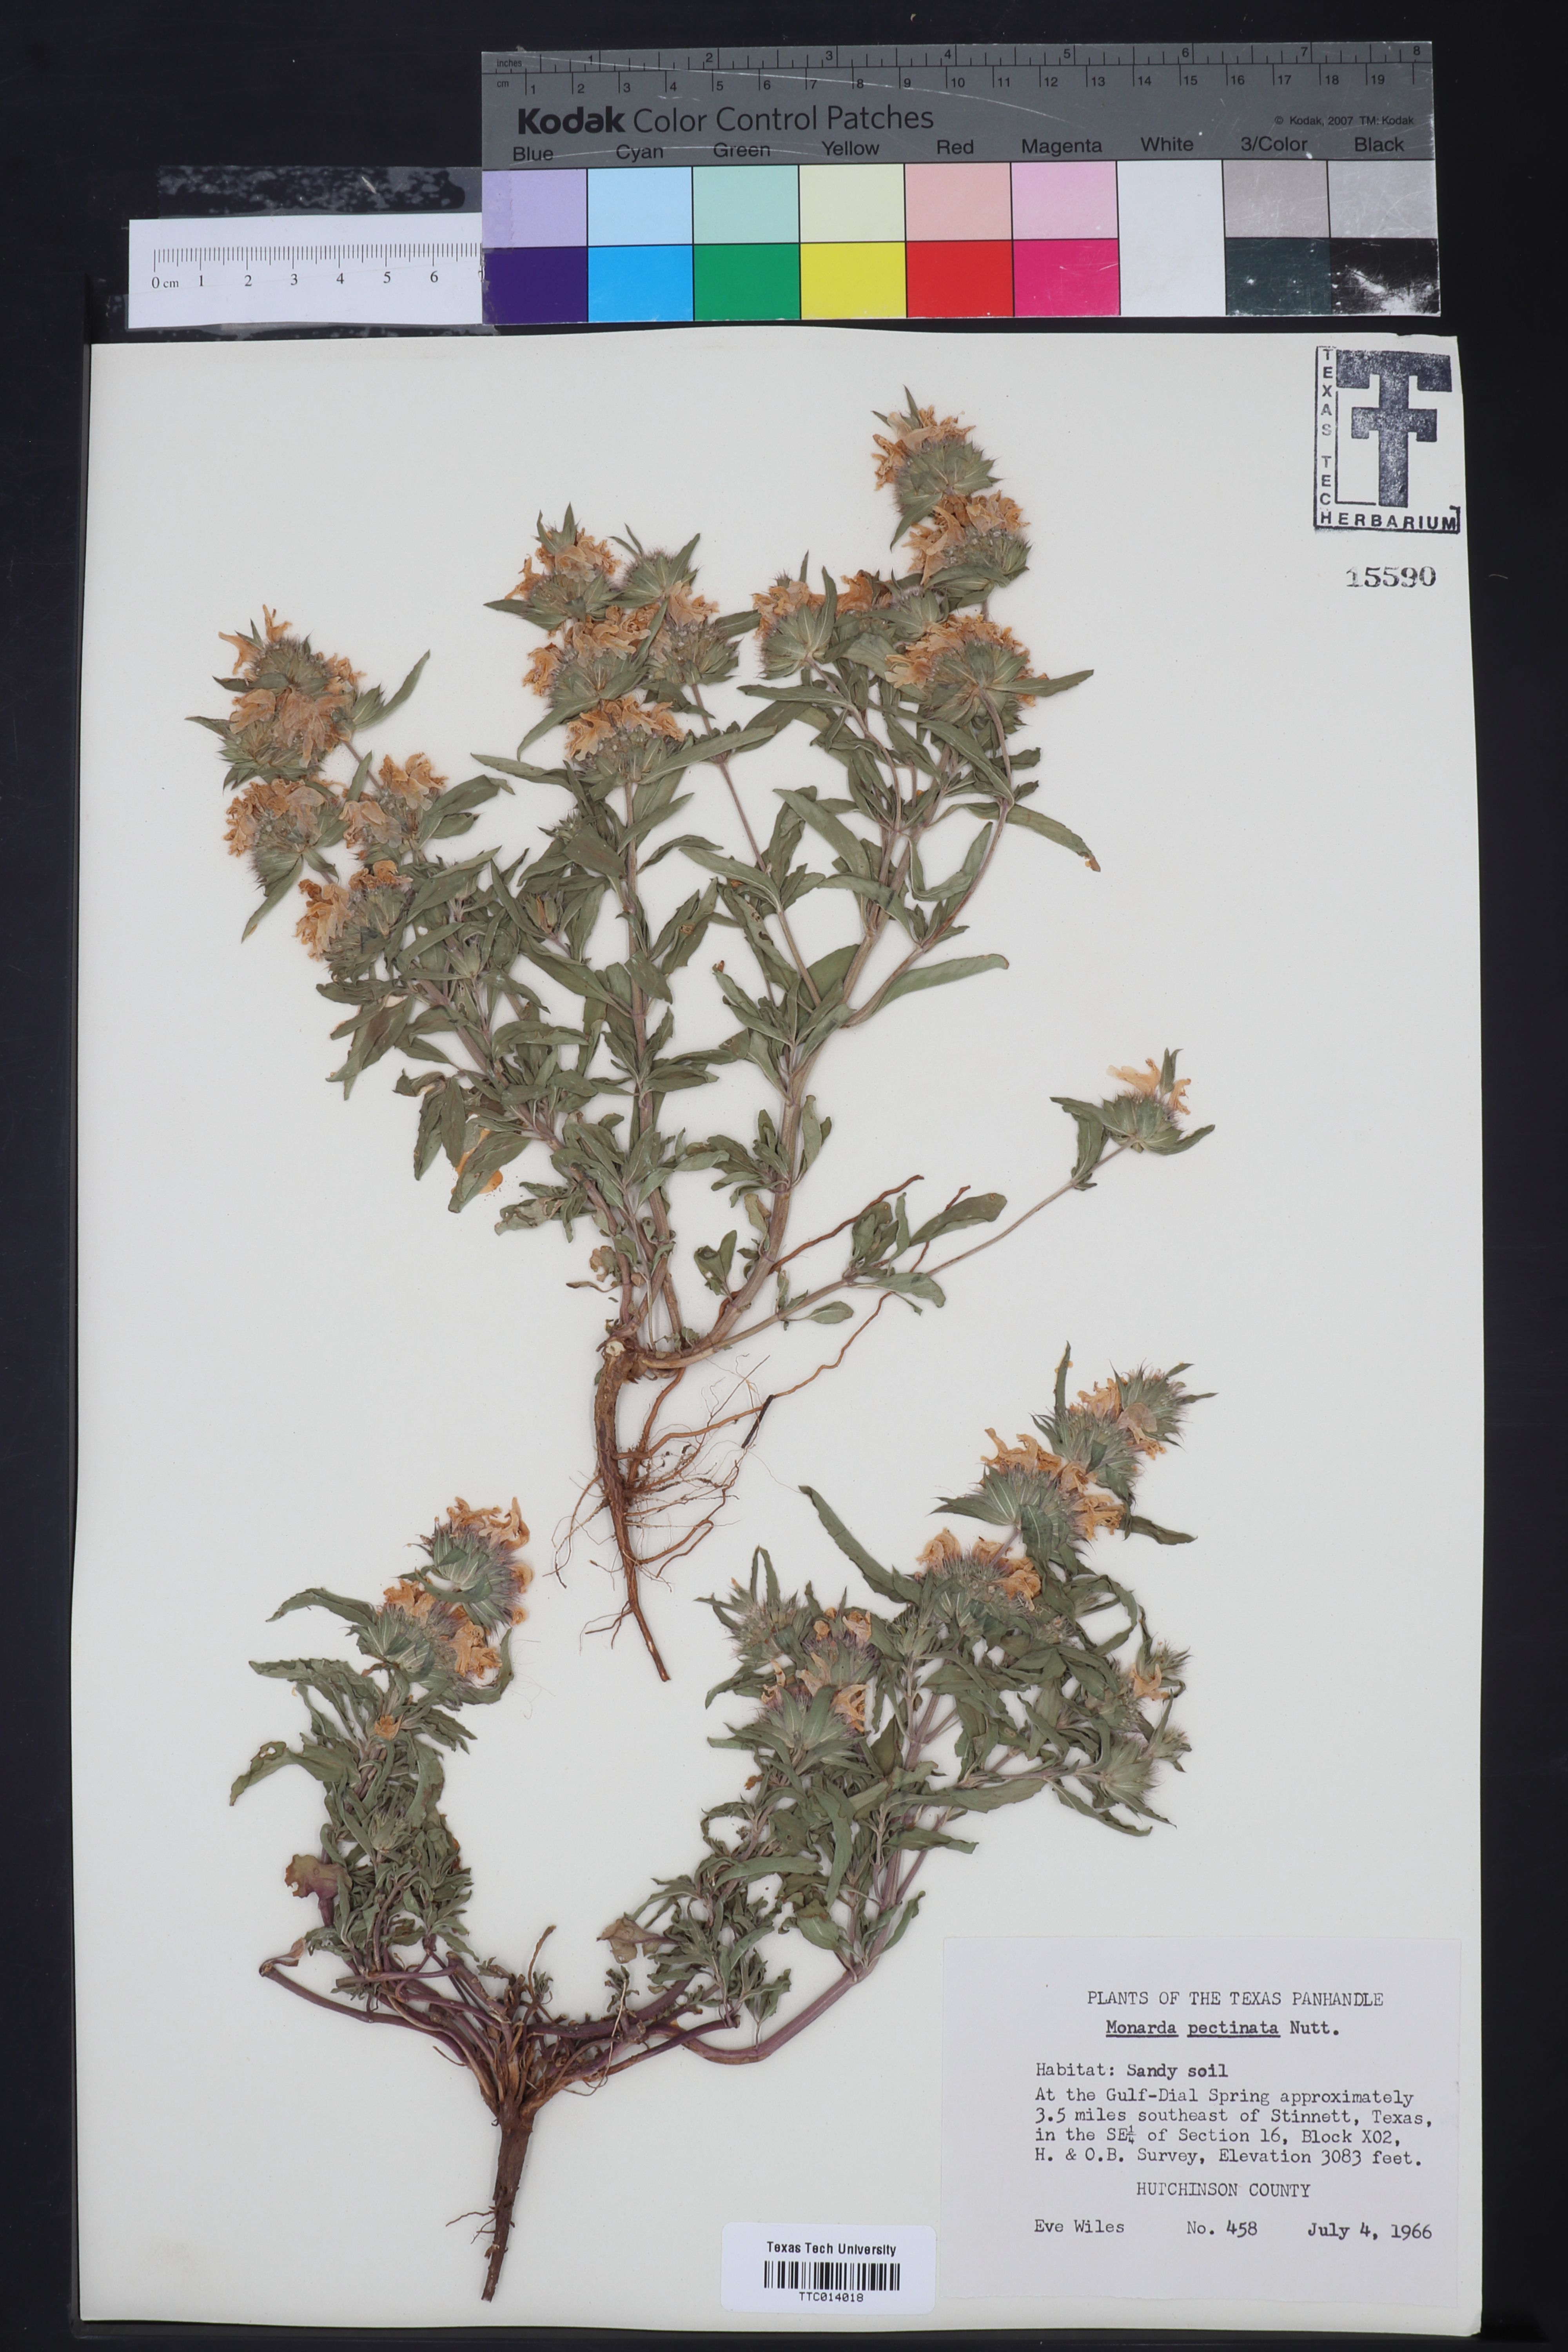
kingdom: Plantae
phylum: Tracheophyta
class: Magnoliopsida
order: Lamiales
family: Lamiaceae
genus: Monarda
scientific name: Monarda pectinata
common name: Plains beebalm
